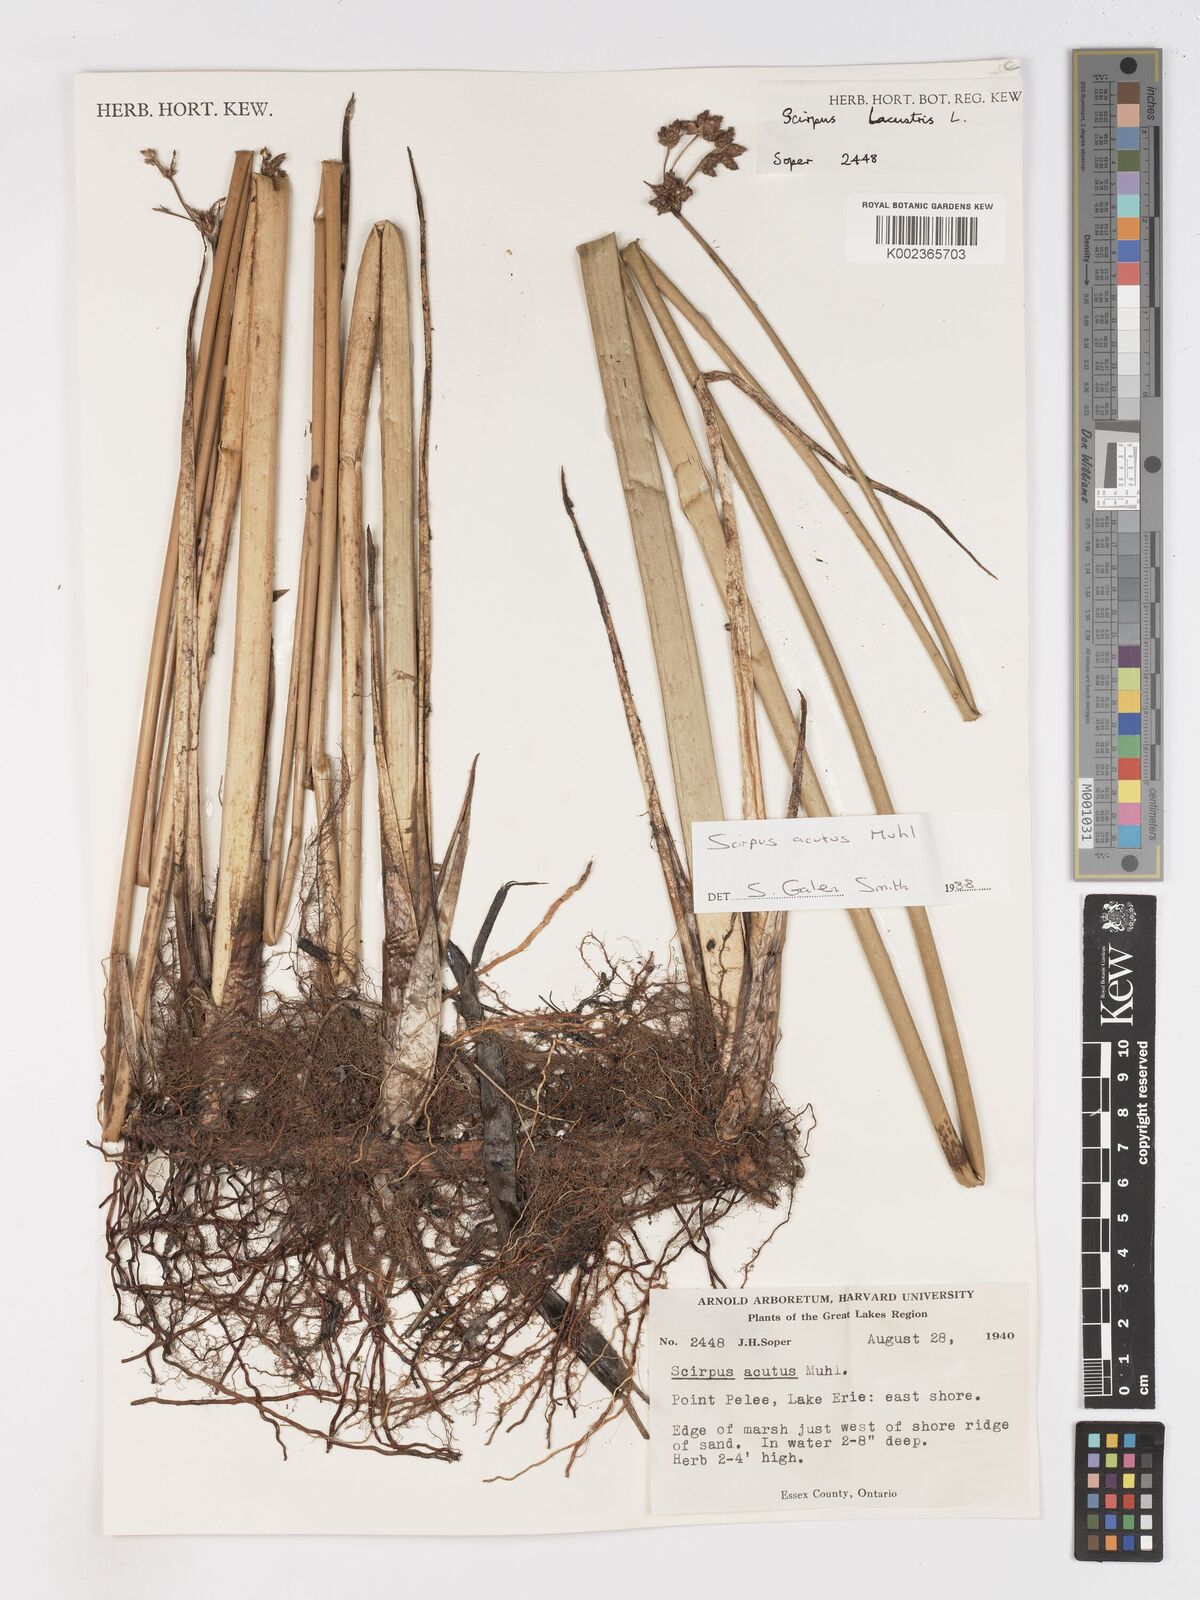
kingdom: Plantae
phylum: Tracheophyta
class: Liliopsida
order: Poales
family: Cyperaceae
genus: Schoenoplectus
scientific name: Schoenoplectus lacustris
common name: Common club-rush
